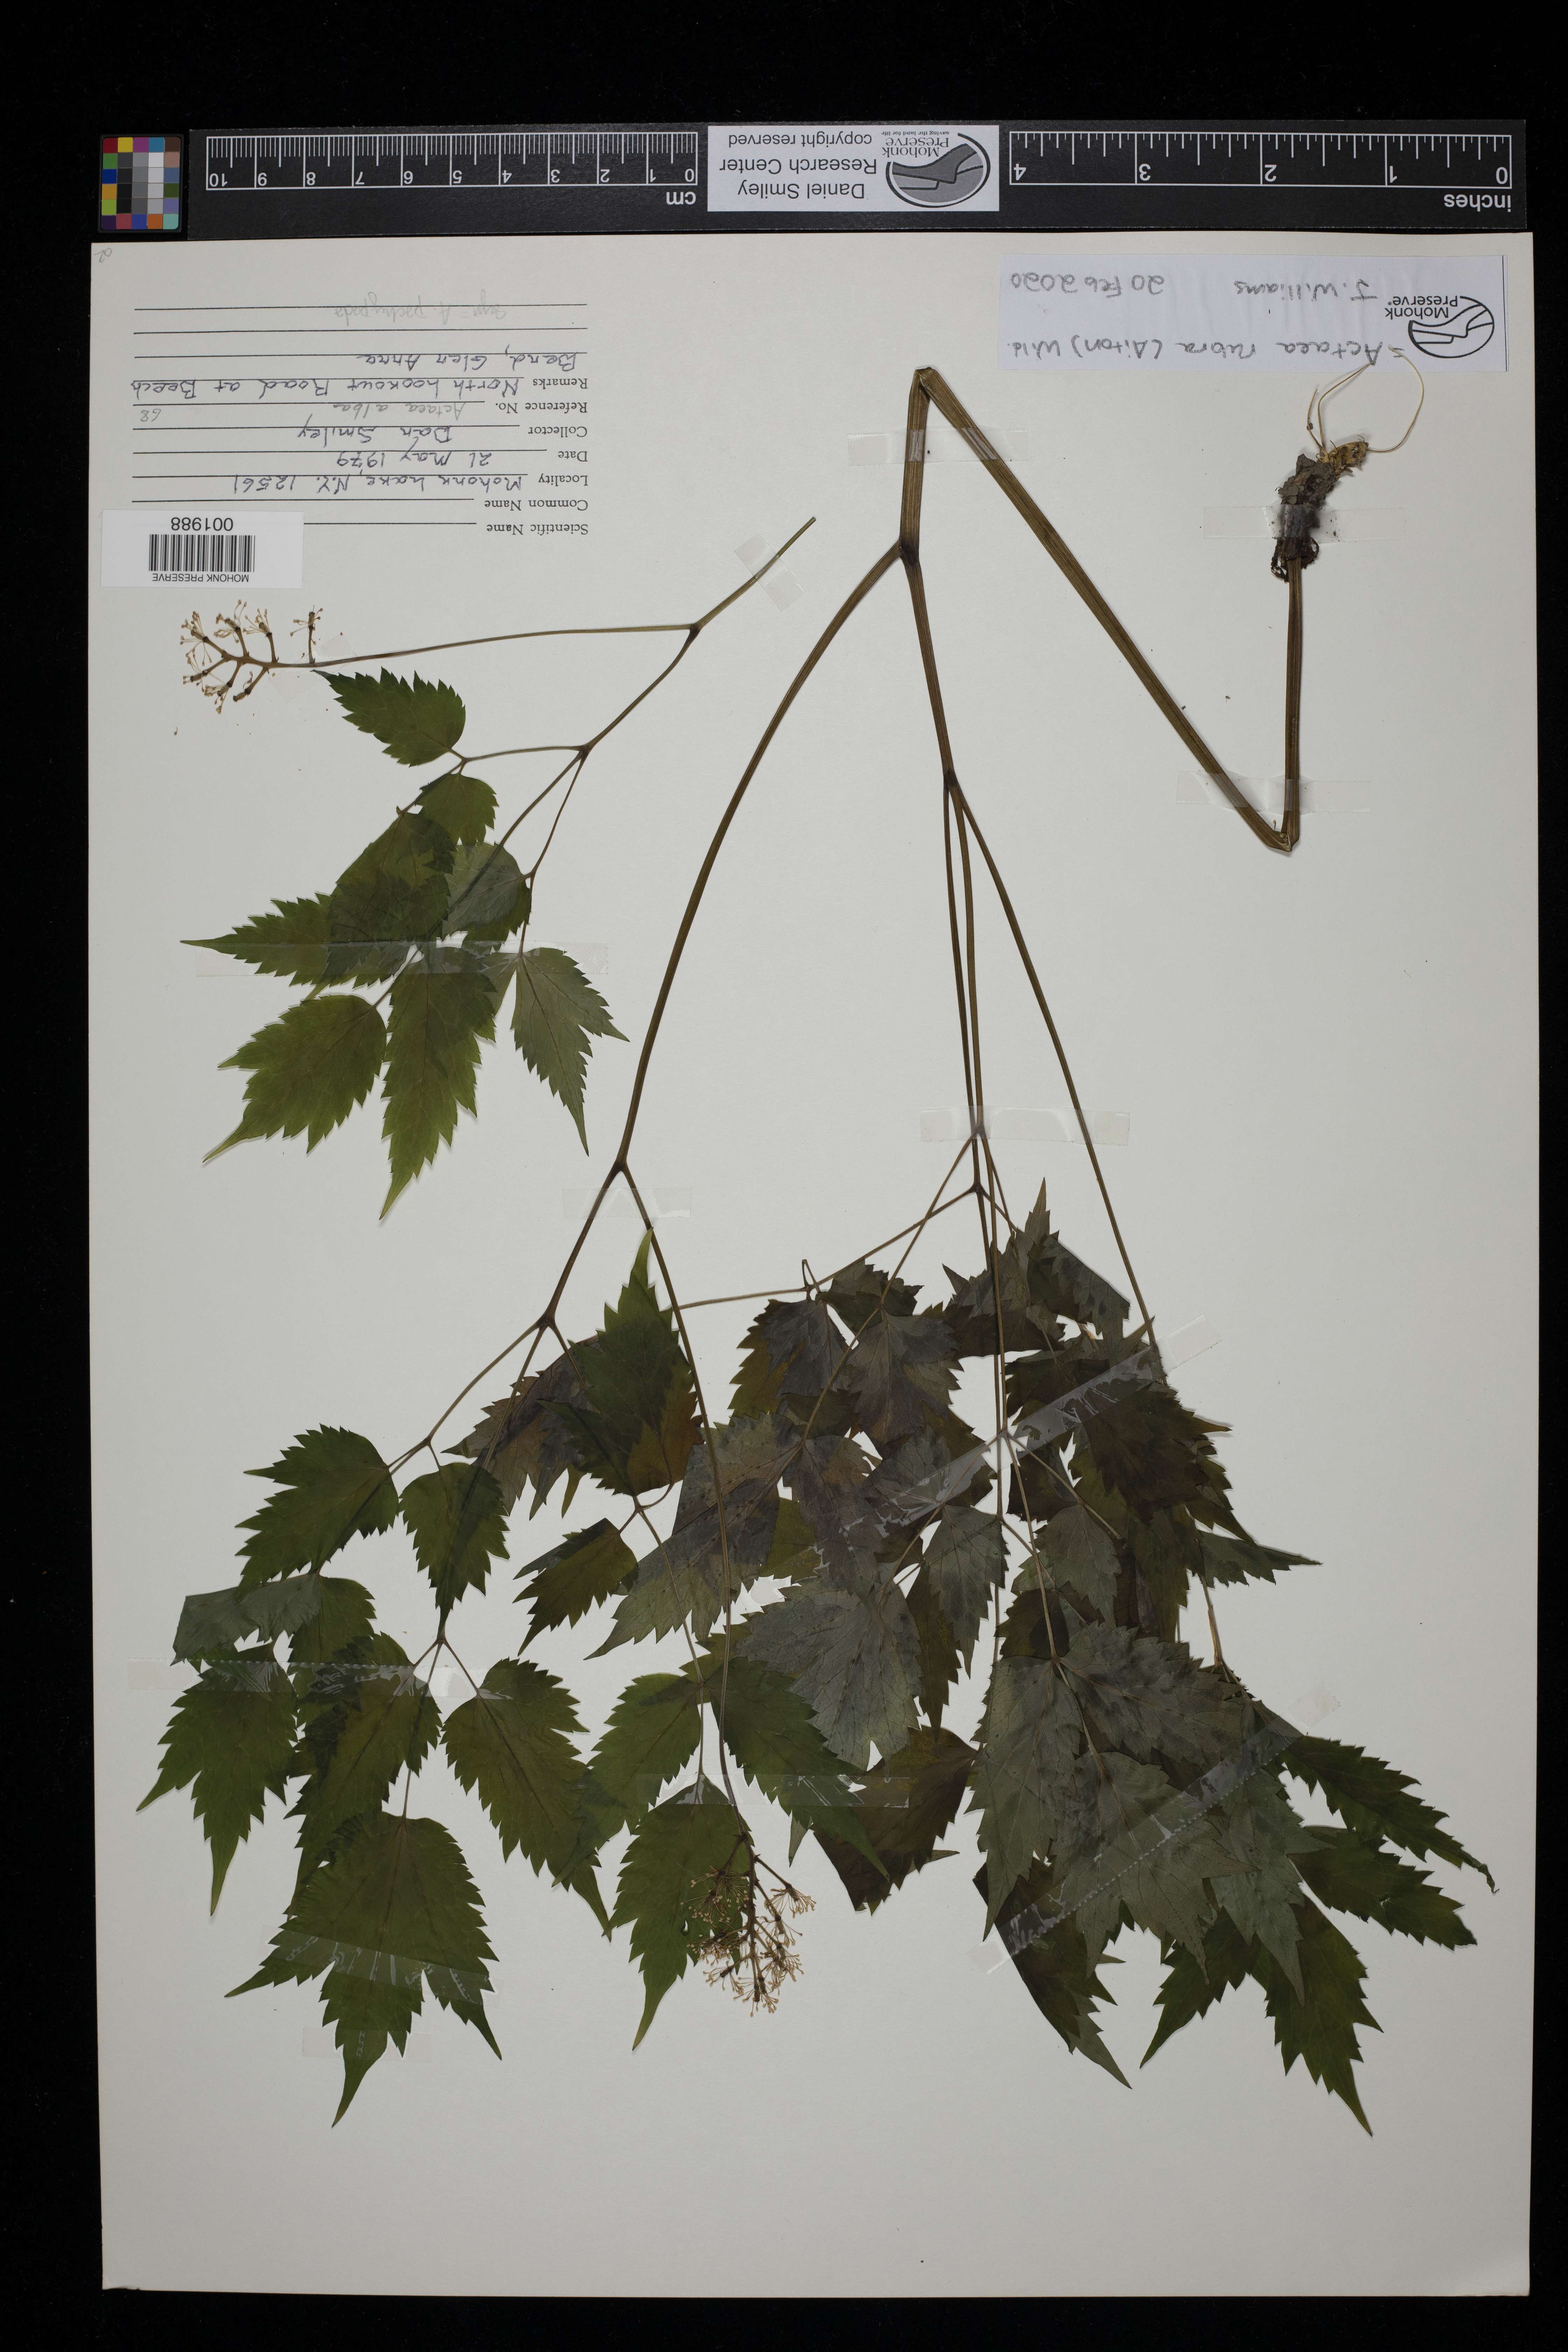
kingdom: Plantae
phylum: Tracheophyta
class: Magnoliopsida
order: Ranunculales
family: Ranunculaceae
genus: Actaea
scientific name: Actaea rubra
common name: Red baneberry
